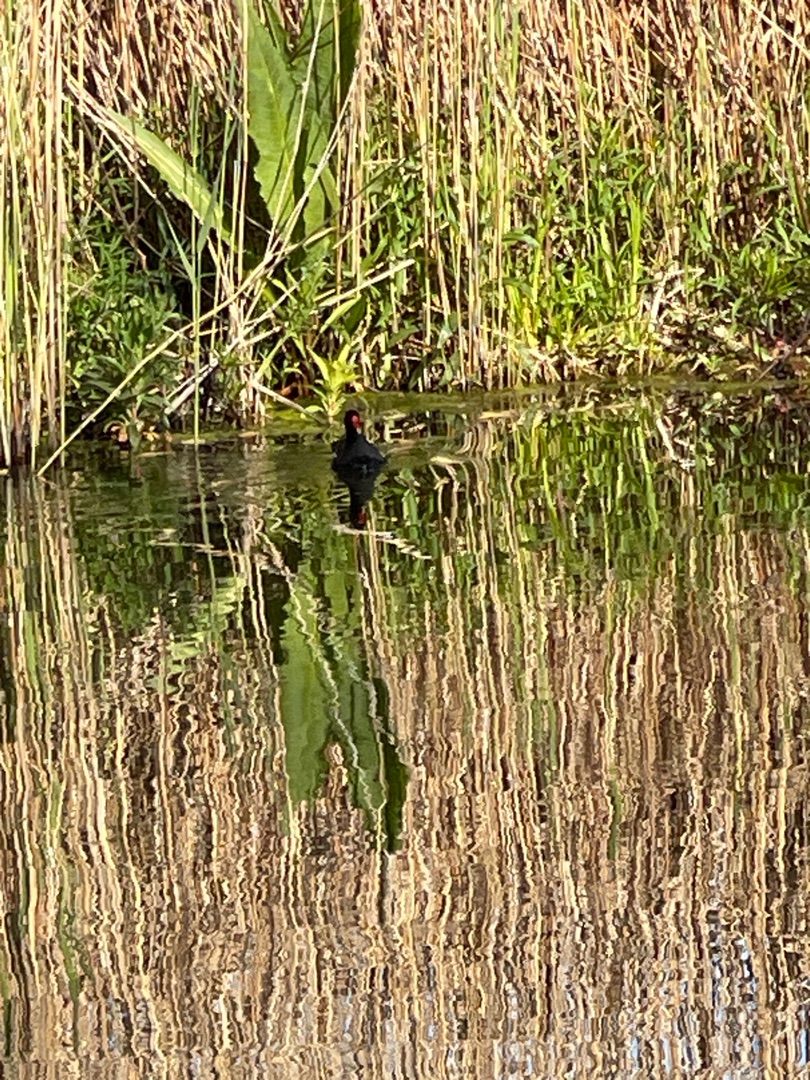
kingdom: Animalia
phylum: Chordata
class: Aves
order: Gruiformes
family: Rallidae
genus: Gallinula
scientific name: Gallinula chloropus
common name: Grønbenet rørhøne
